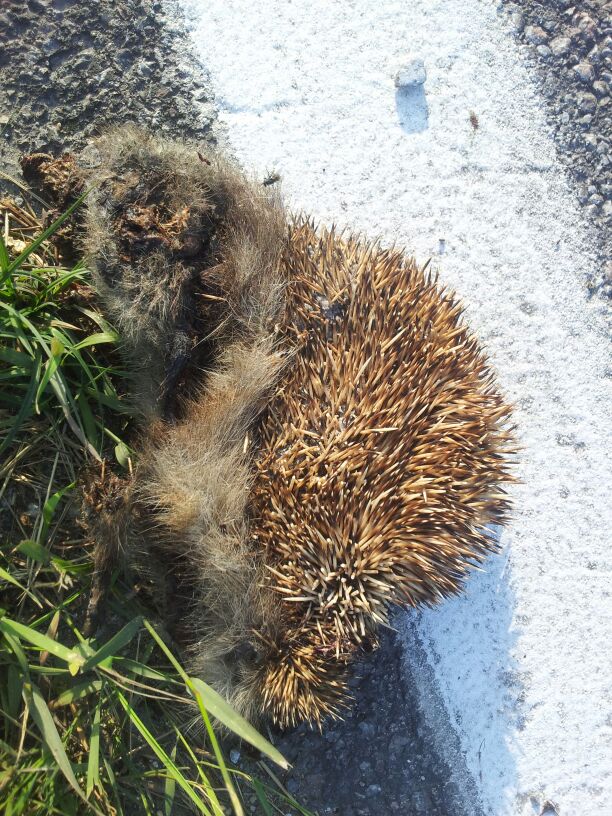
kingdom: Animalia
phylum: Chordata
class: Mammalia
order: Erinaceomorpha
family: Erinaceidae
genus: Erinaceus
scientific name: Erinaceus
